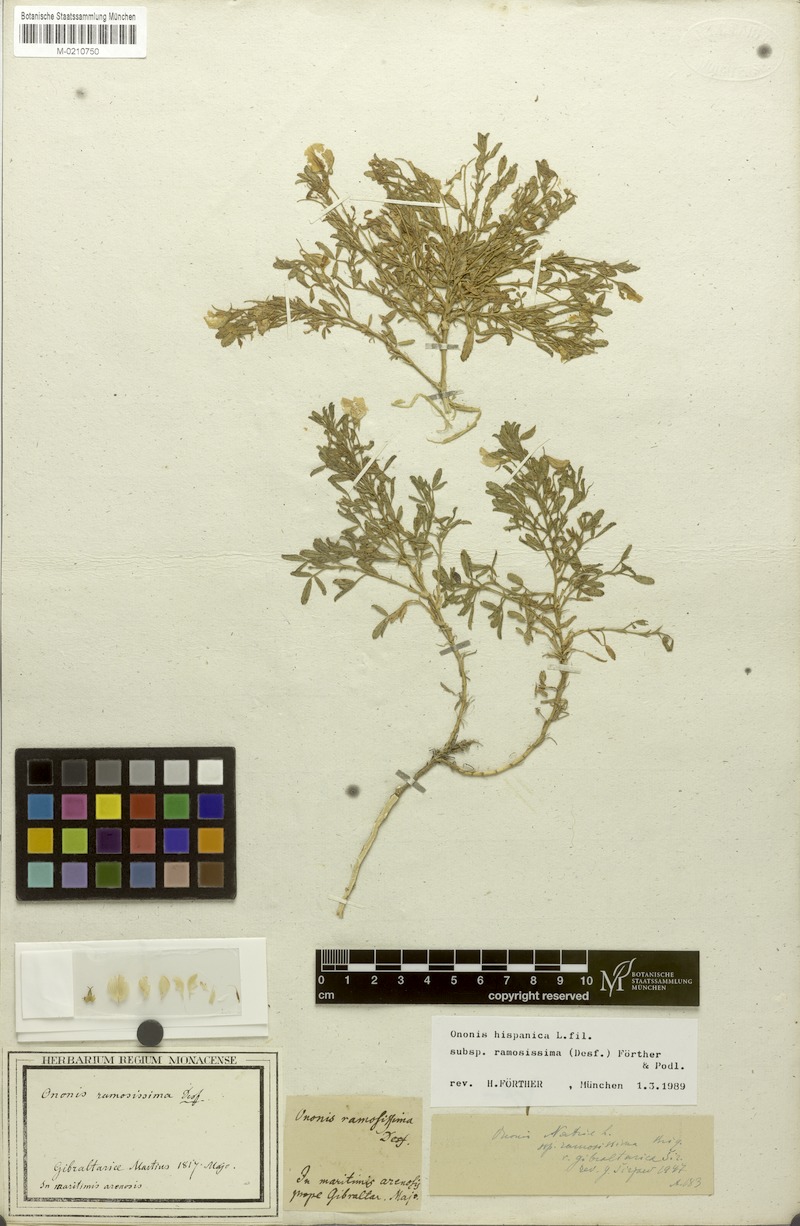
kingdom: Plantae
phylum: Tracheophyta
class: Magnoliopsida
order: Fabales
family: Fabaceae
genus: Ononis
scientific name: Ononis ramosissima
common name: Bush restharrow
